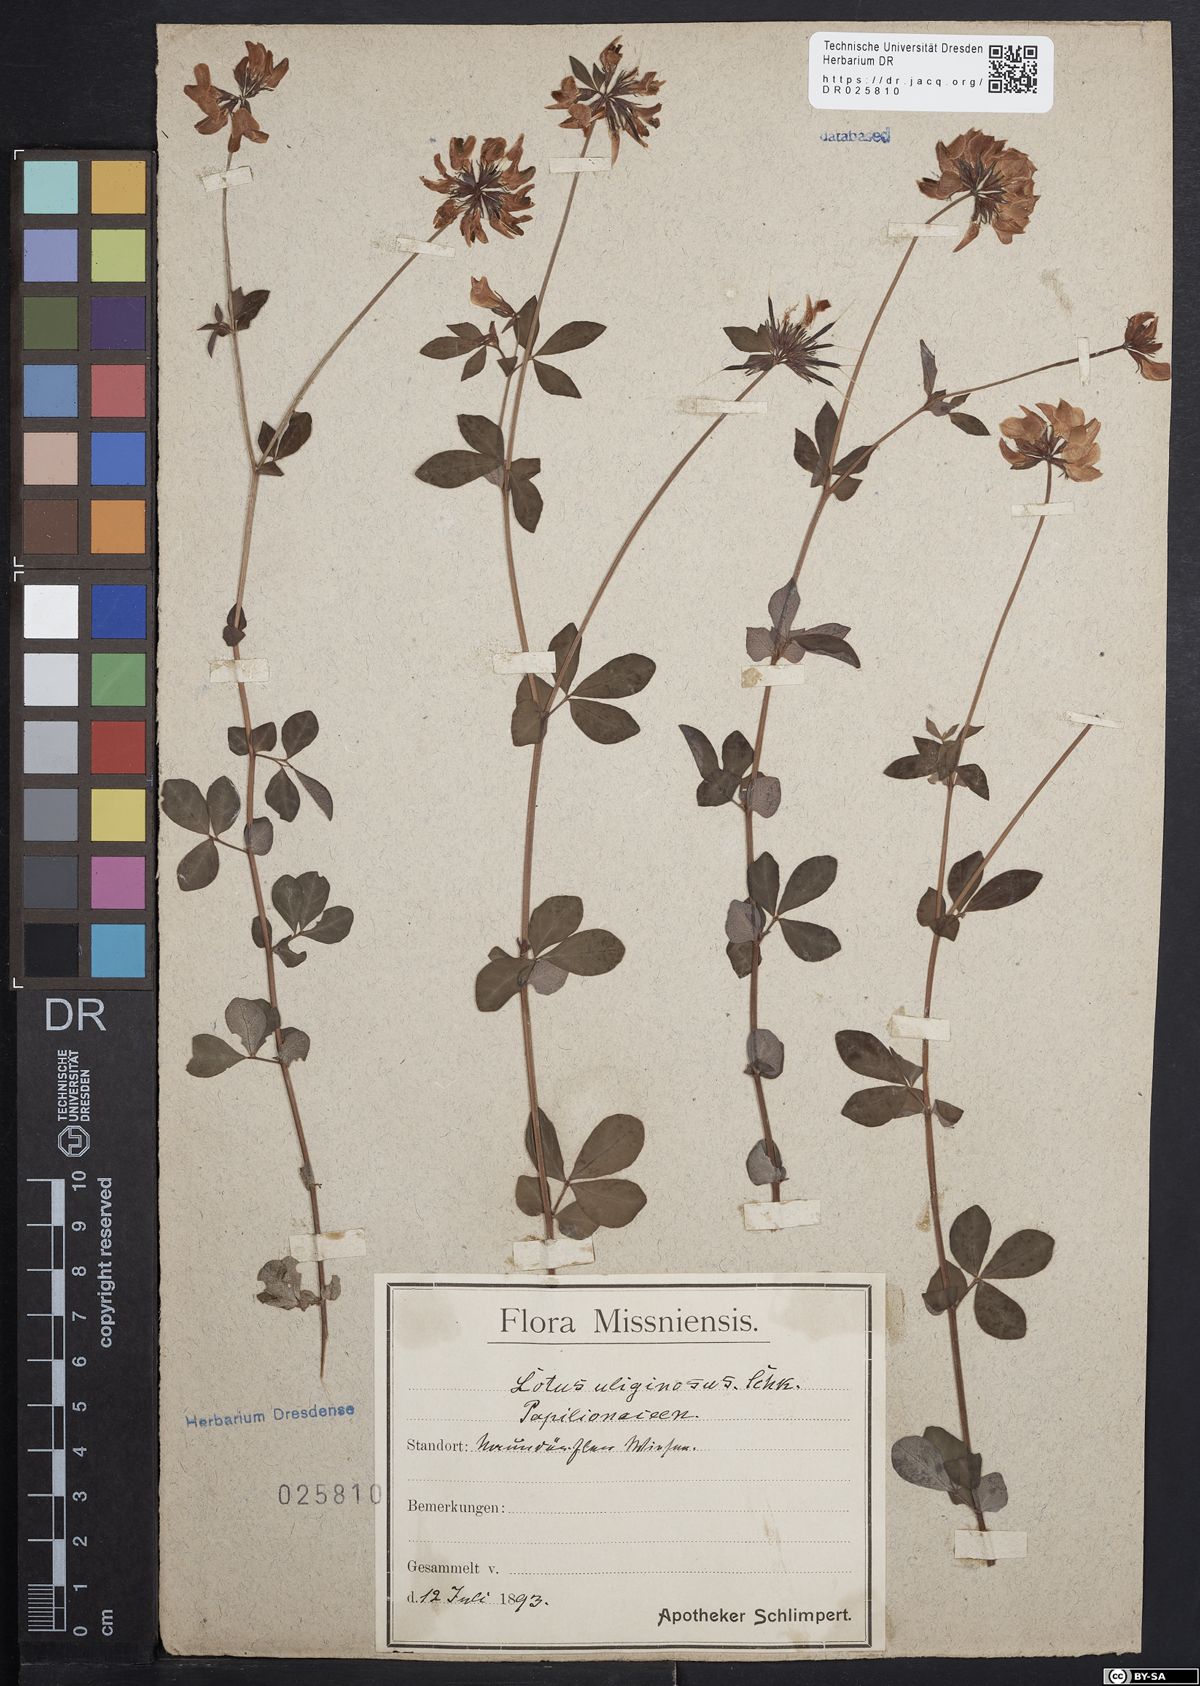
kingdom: Plantae
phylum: Tracheophyta
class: Magnoliopsida
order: Fabales
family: Fabaceae
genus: Lotus
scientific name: Lotus pedunculatus
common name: Greater birdsfoot-trefoil
